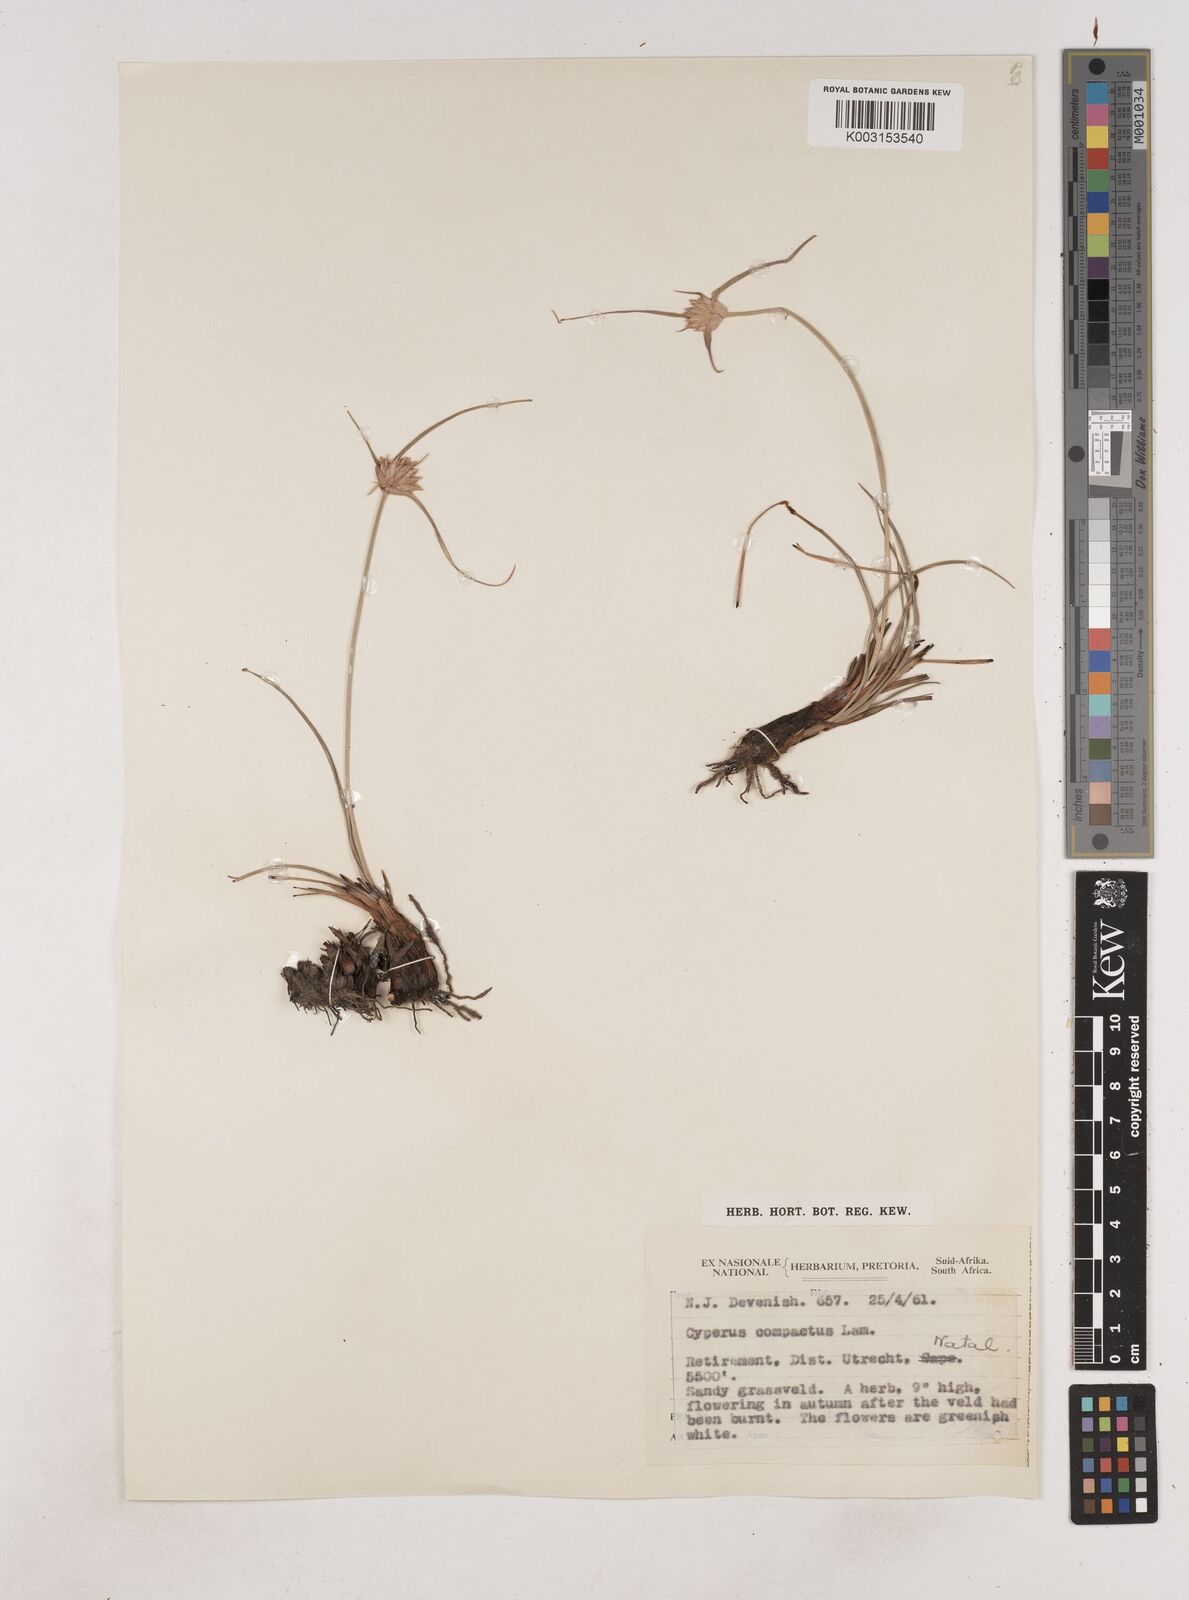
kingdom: Plantae
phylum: Tracheophyta
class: Liliopsida
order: Poales
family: Cyperaceae
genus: Cyperus
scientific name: Cyperus niveus
